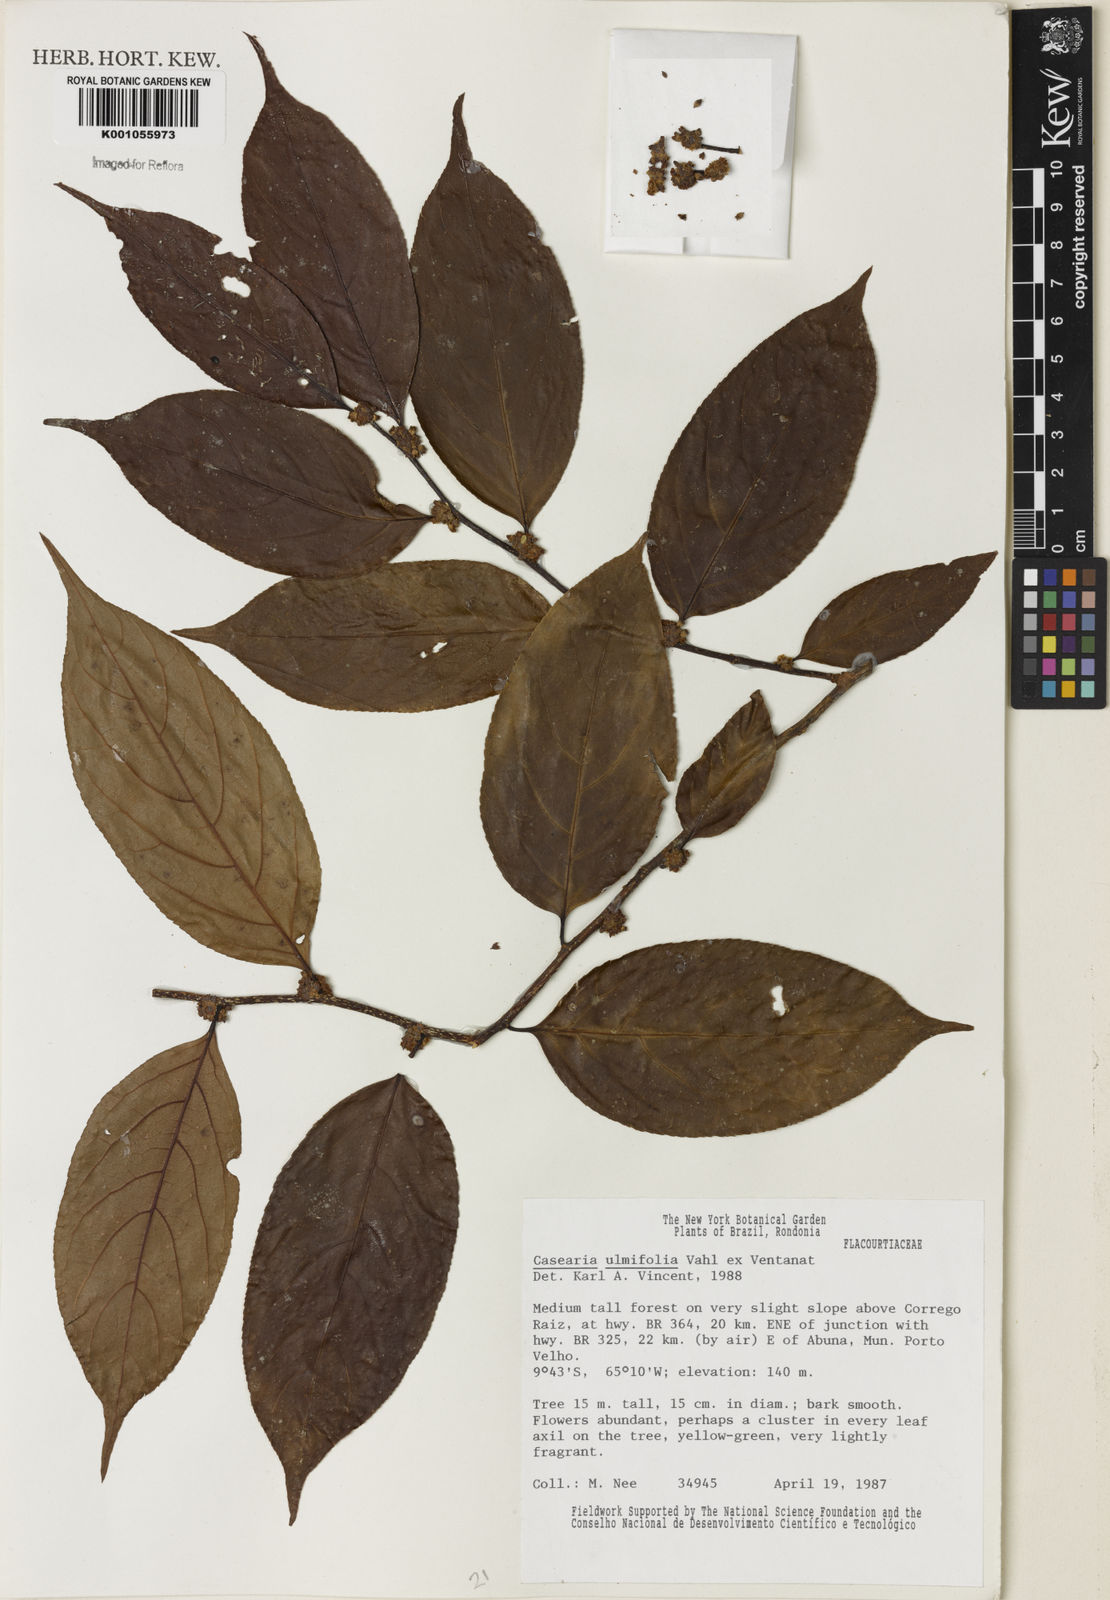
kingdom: Plantae
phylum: Tracheophyta
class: Magnoliopsida
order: Malpighiales
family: Salicaceae
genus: Casearia
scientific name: Casearia ulmifolia
